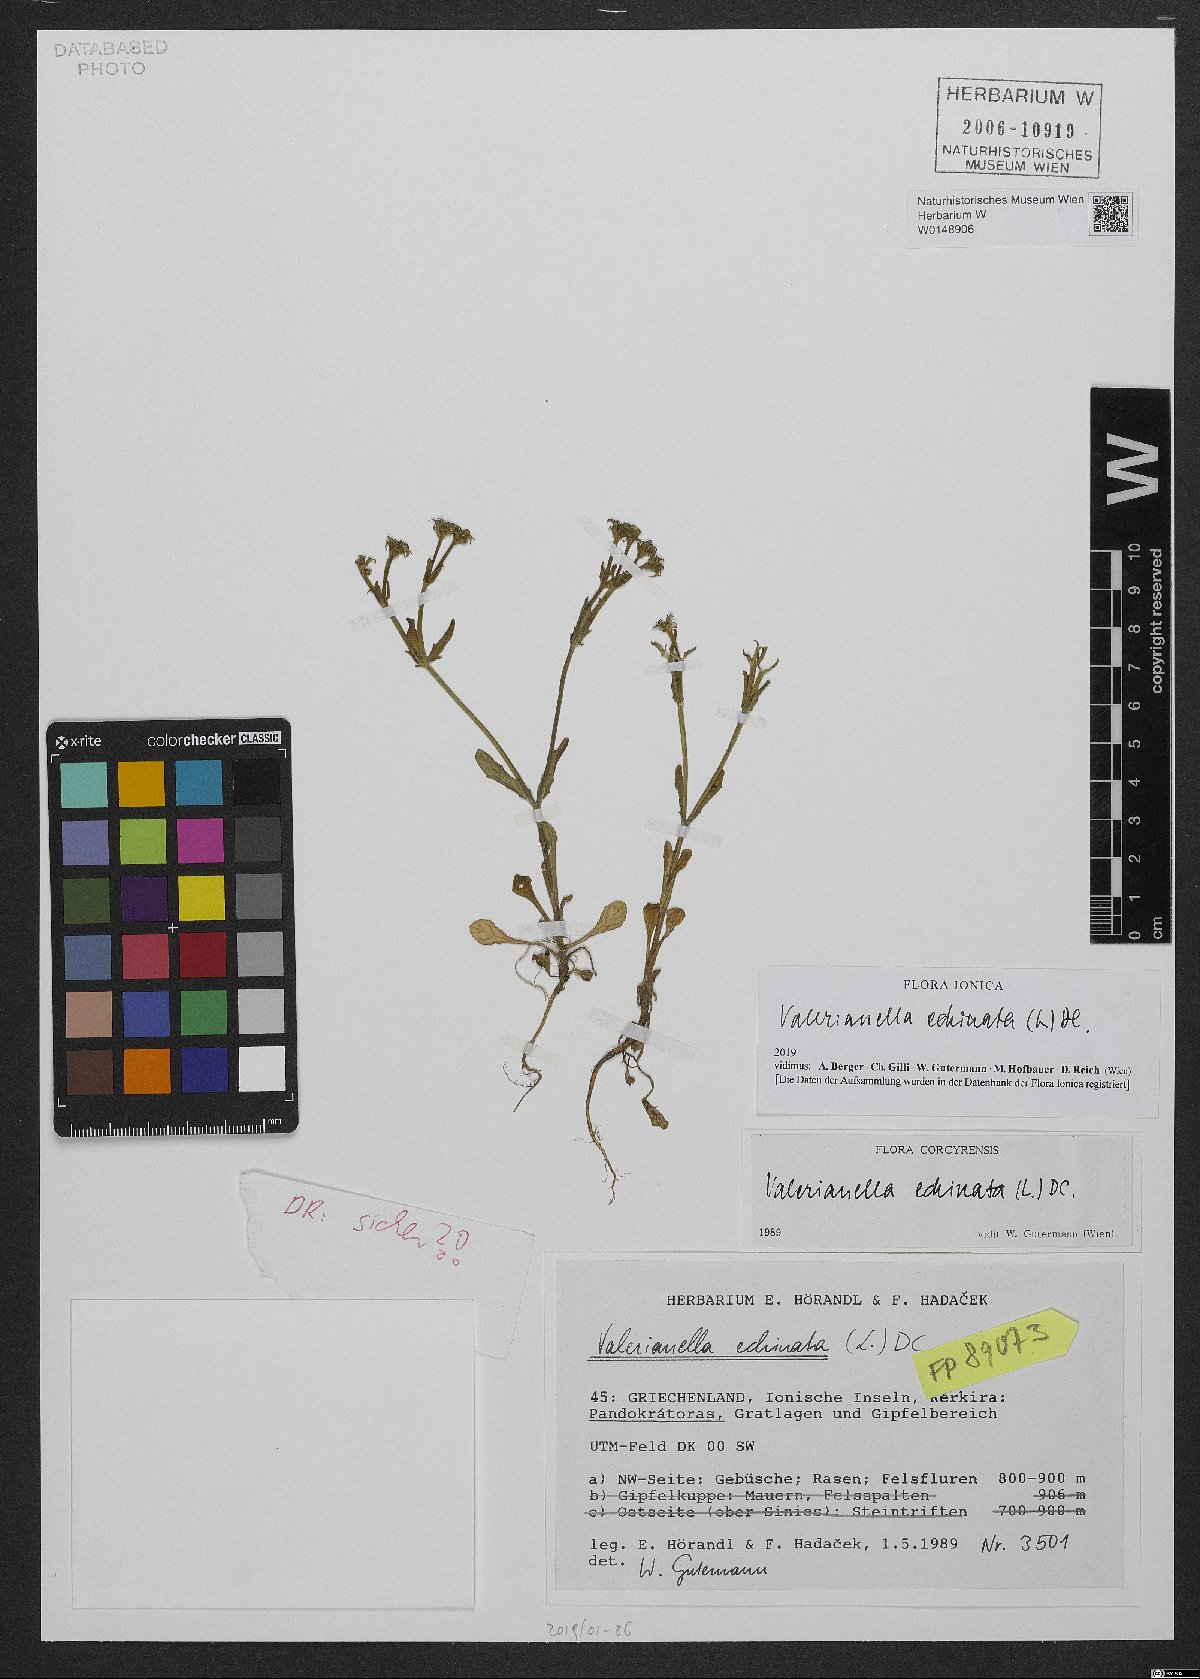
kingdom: Plantae
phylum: Tracheophyta
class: Magnoliopsida
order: Dipsacales
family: Caprifoliaceae
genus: Valerianella
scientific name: Valerianella echinata
